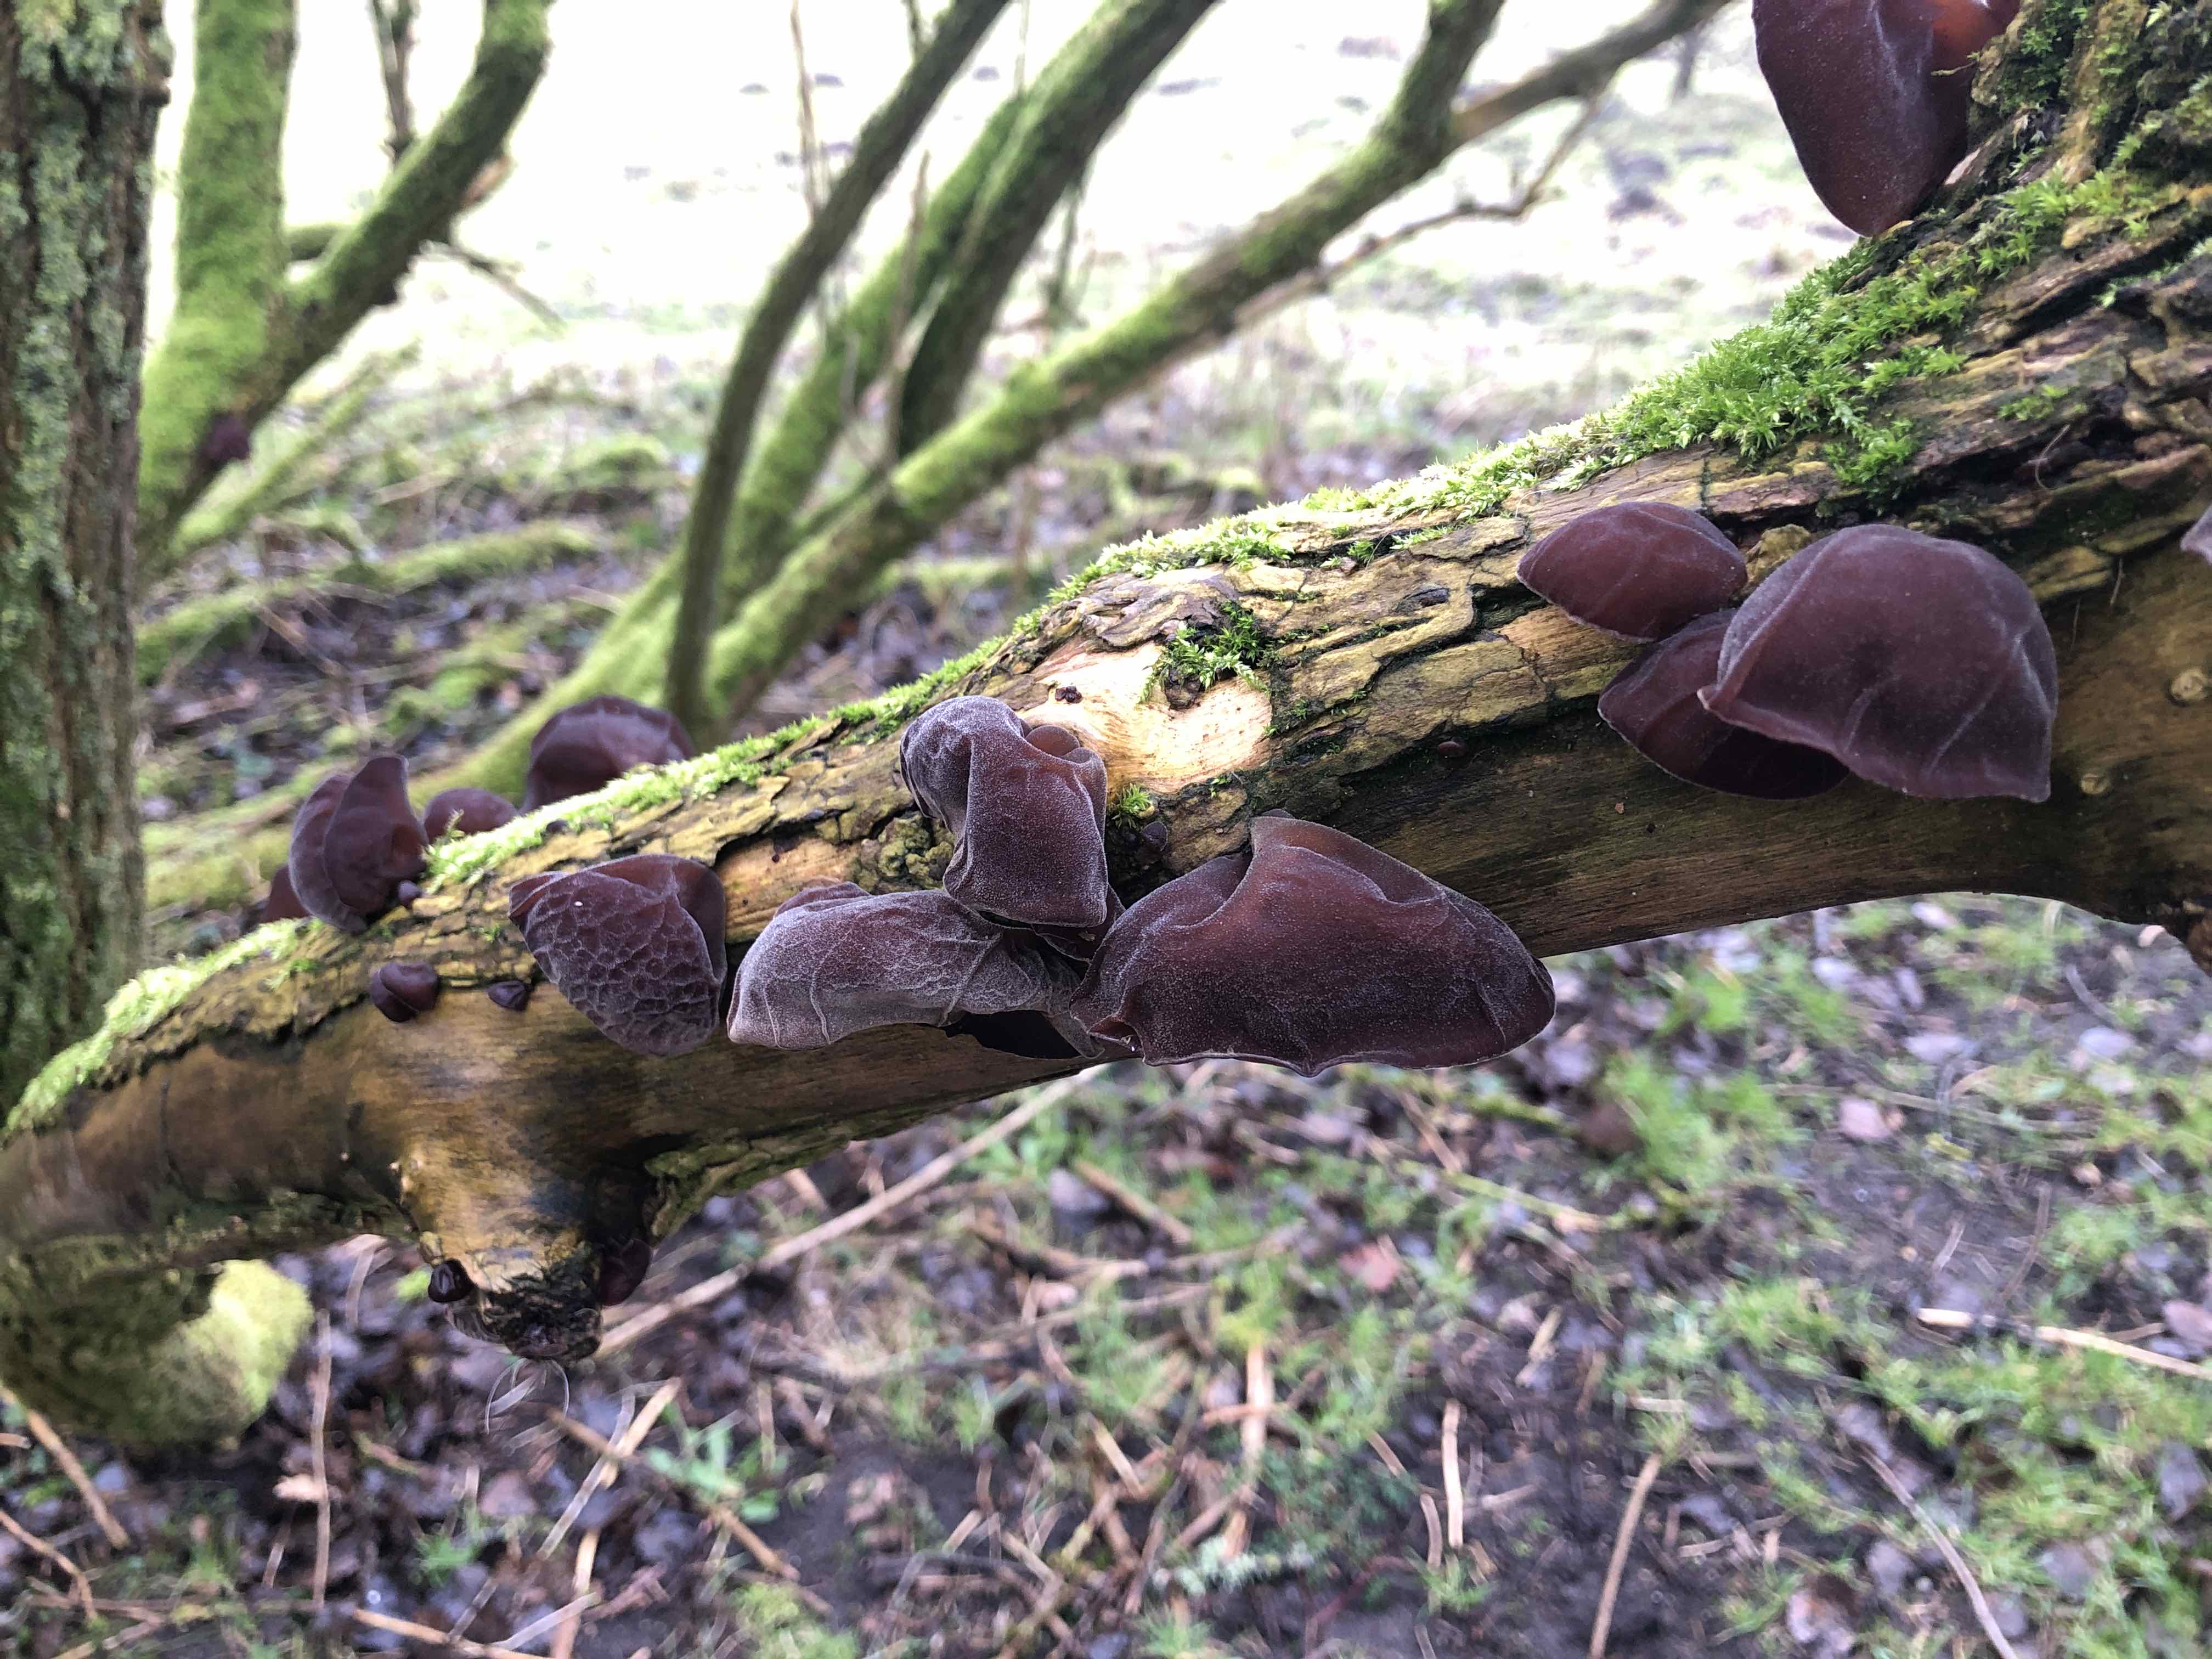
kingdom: Fungi
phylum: Basidiomycota
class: Agaricomycetes
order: Auriculariales
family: Auriculariaceae
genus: Auricularia
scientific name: Auricularia auricula-judae
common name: almindelig judasøre
